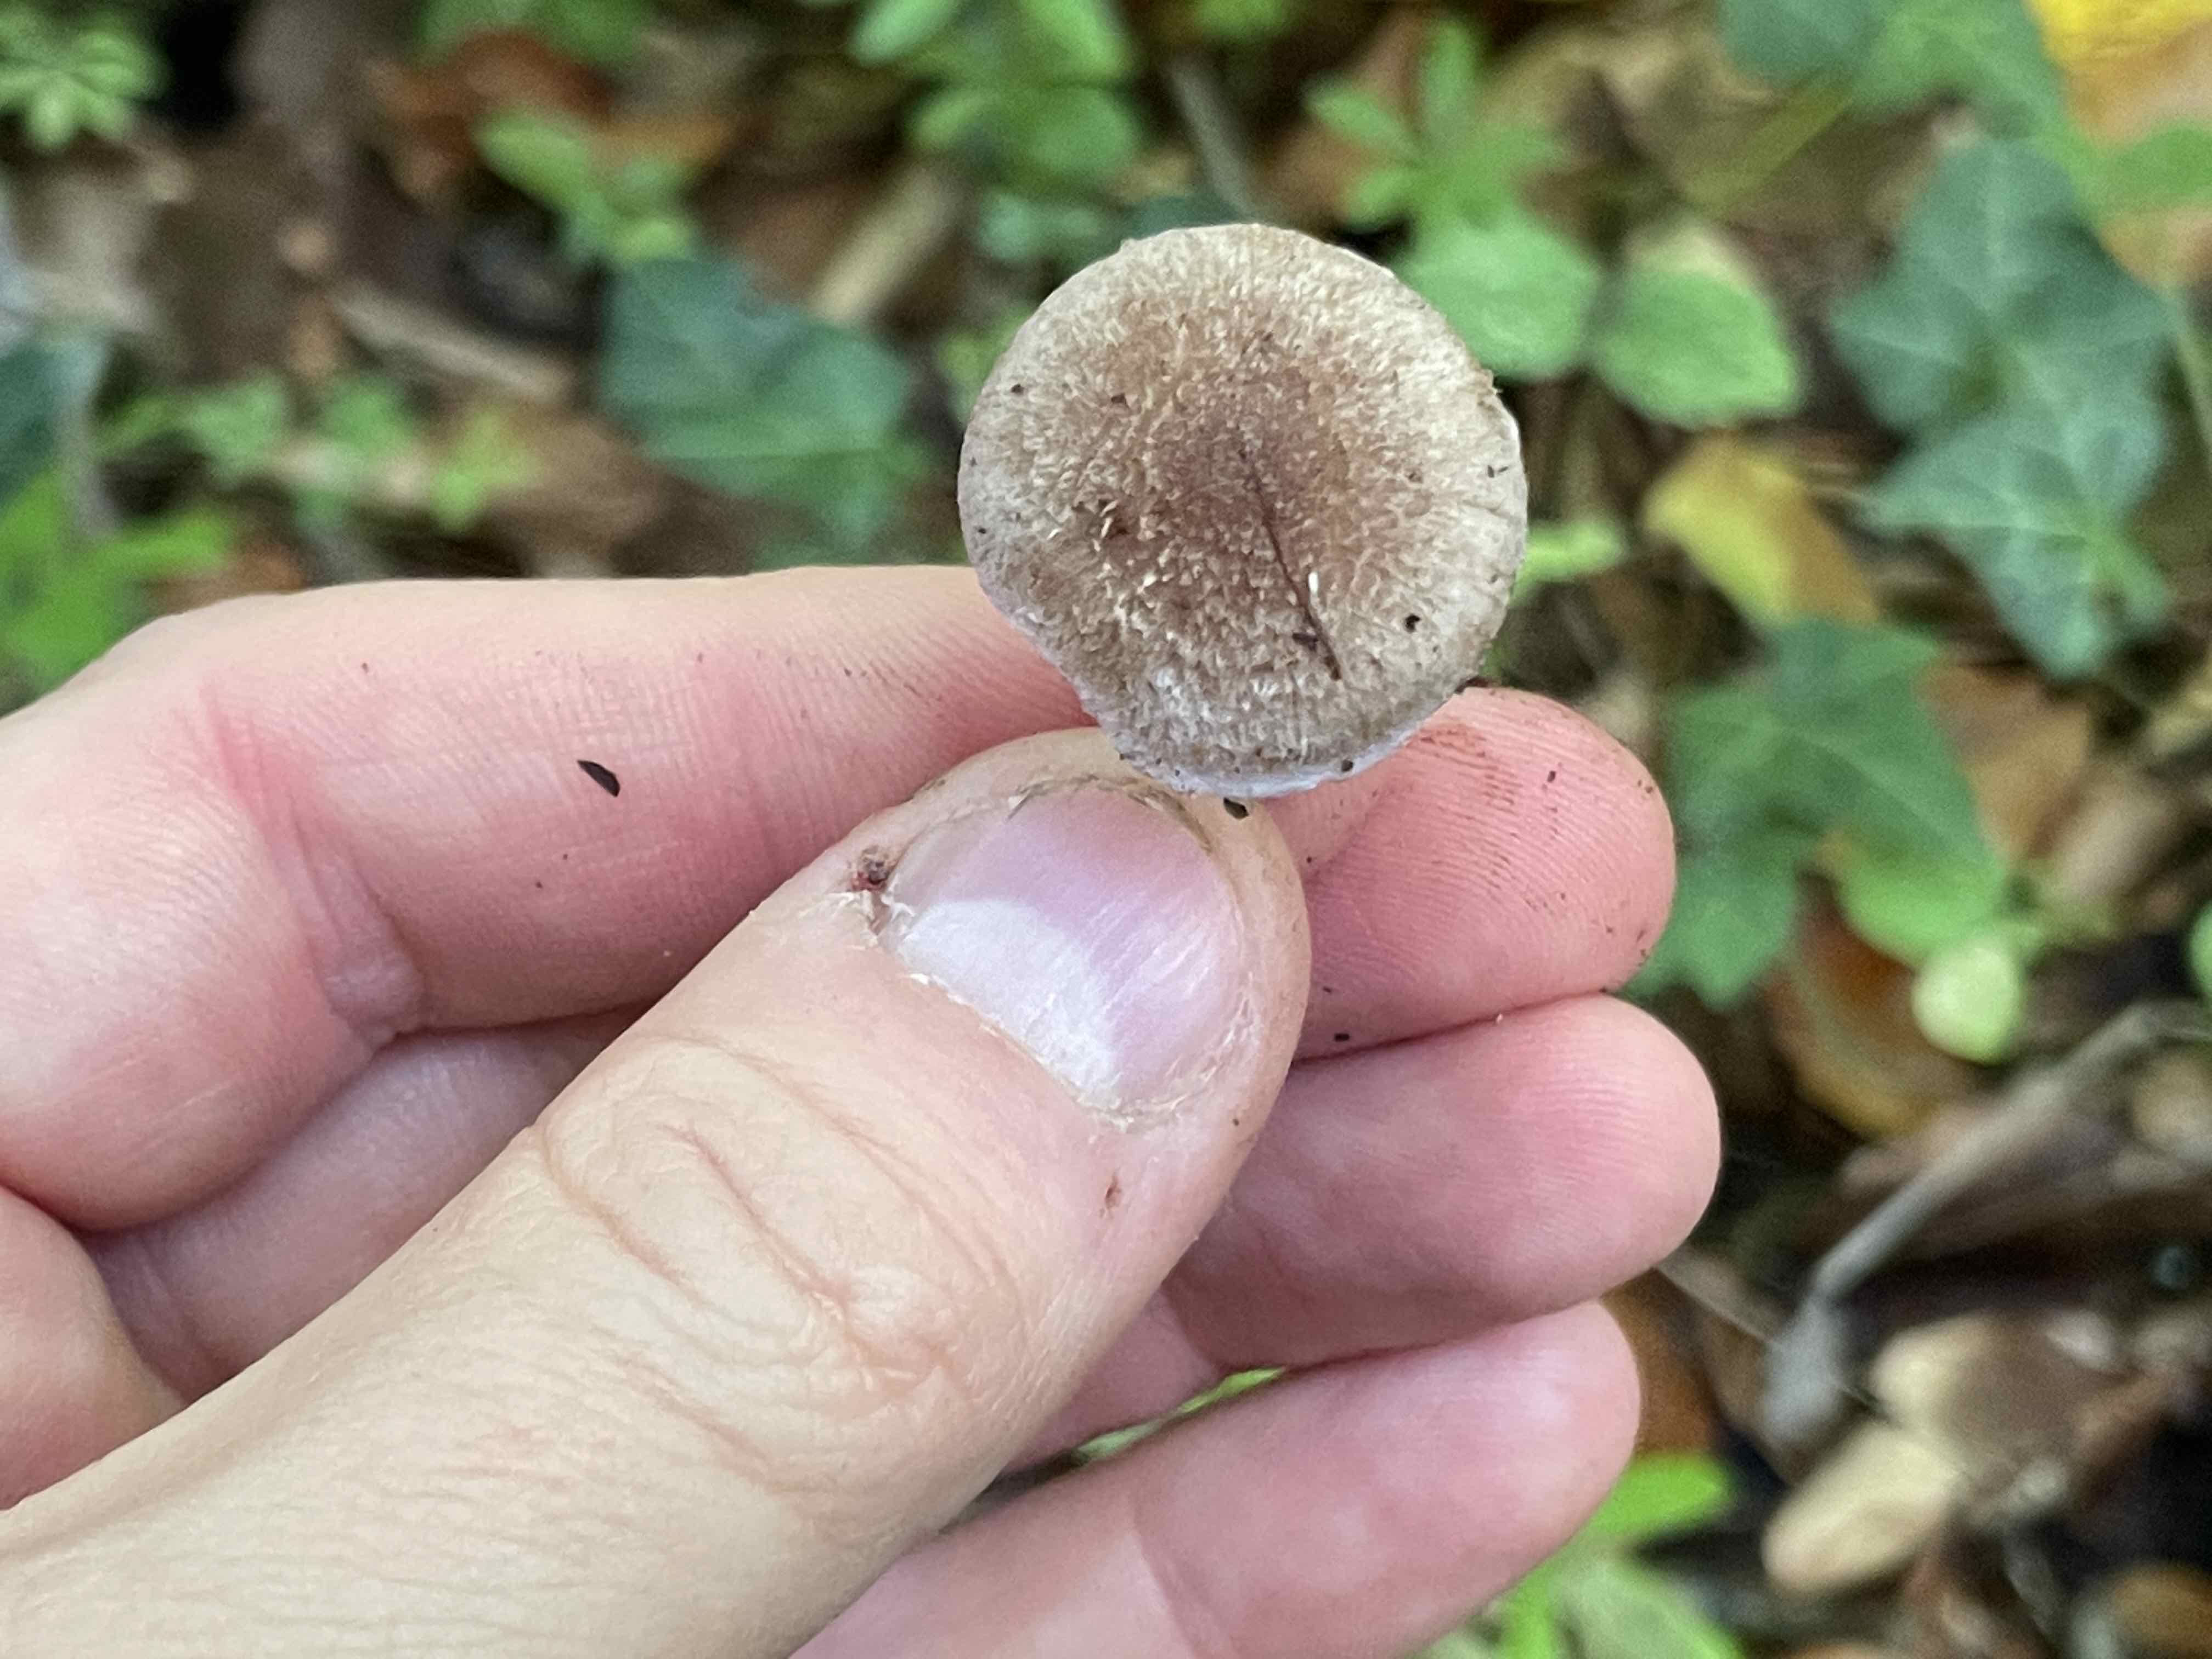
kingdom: Fungi
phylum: Basidiomycota
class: Agaricomycetes
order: Agaricales
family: Inocybaceae
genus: Inocybe
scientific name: Inocybe griseolilacina
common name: lillagrå trævlhat
